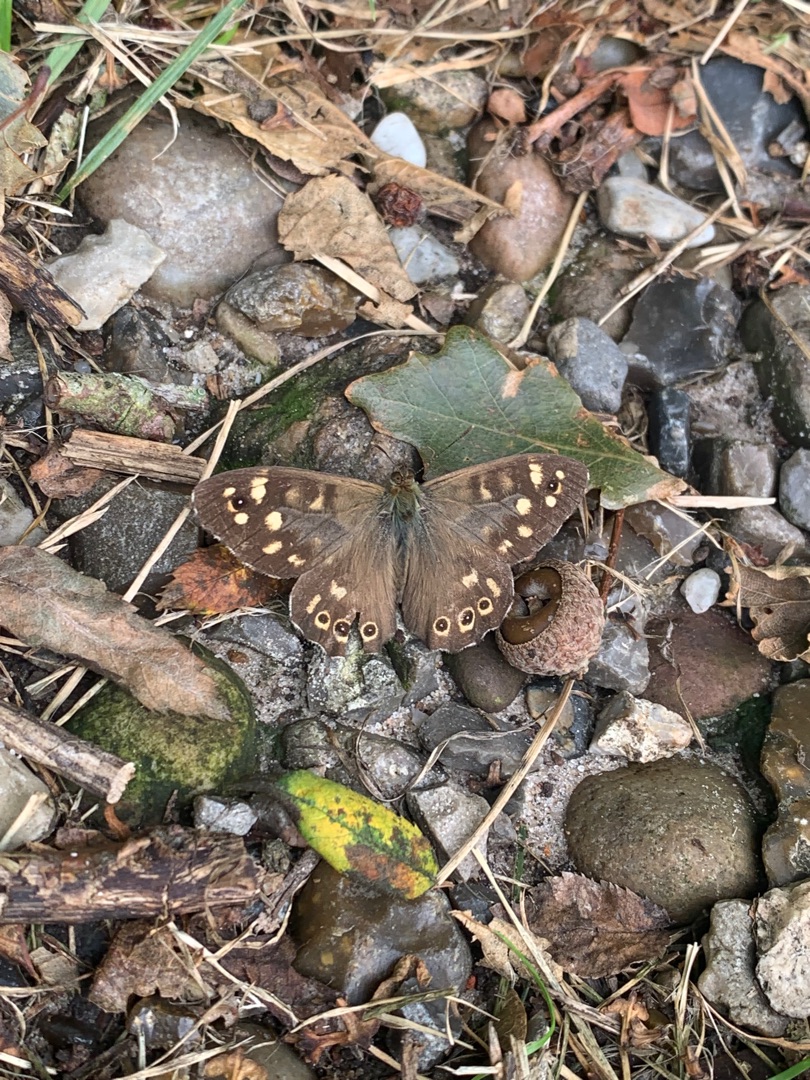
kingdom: Animalia
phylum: Arthropoda
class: Insecta
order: Lepidoptera
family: Nymphalidae
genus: Pararge
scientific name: Pararge aegeria
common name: Skovrandøje
